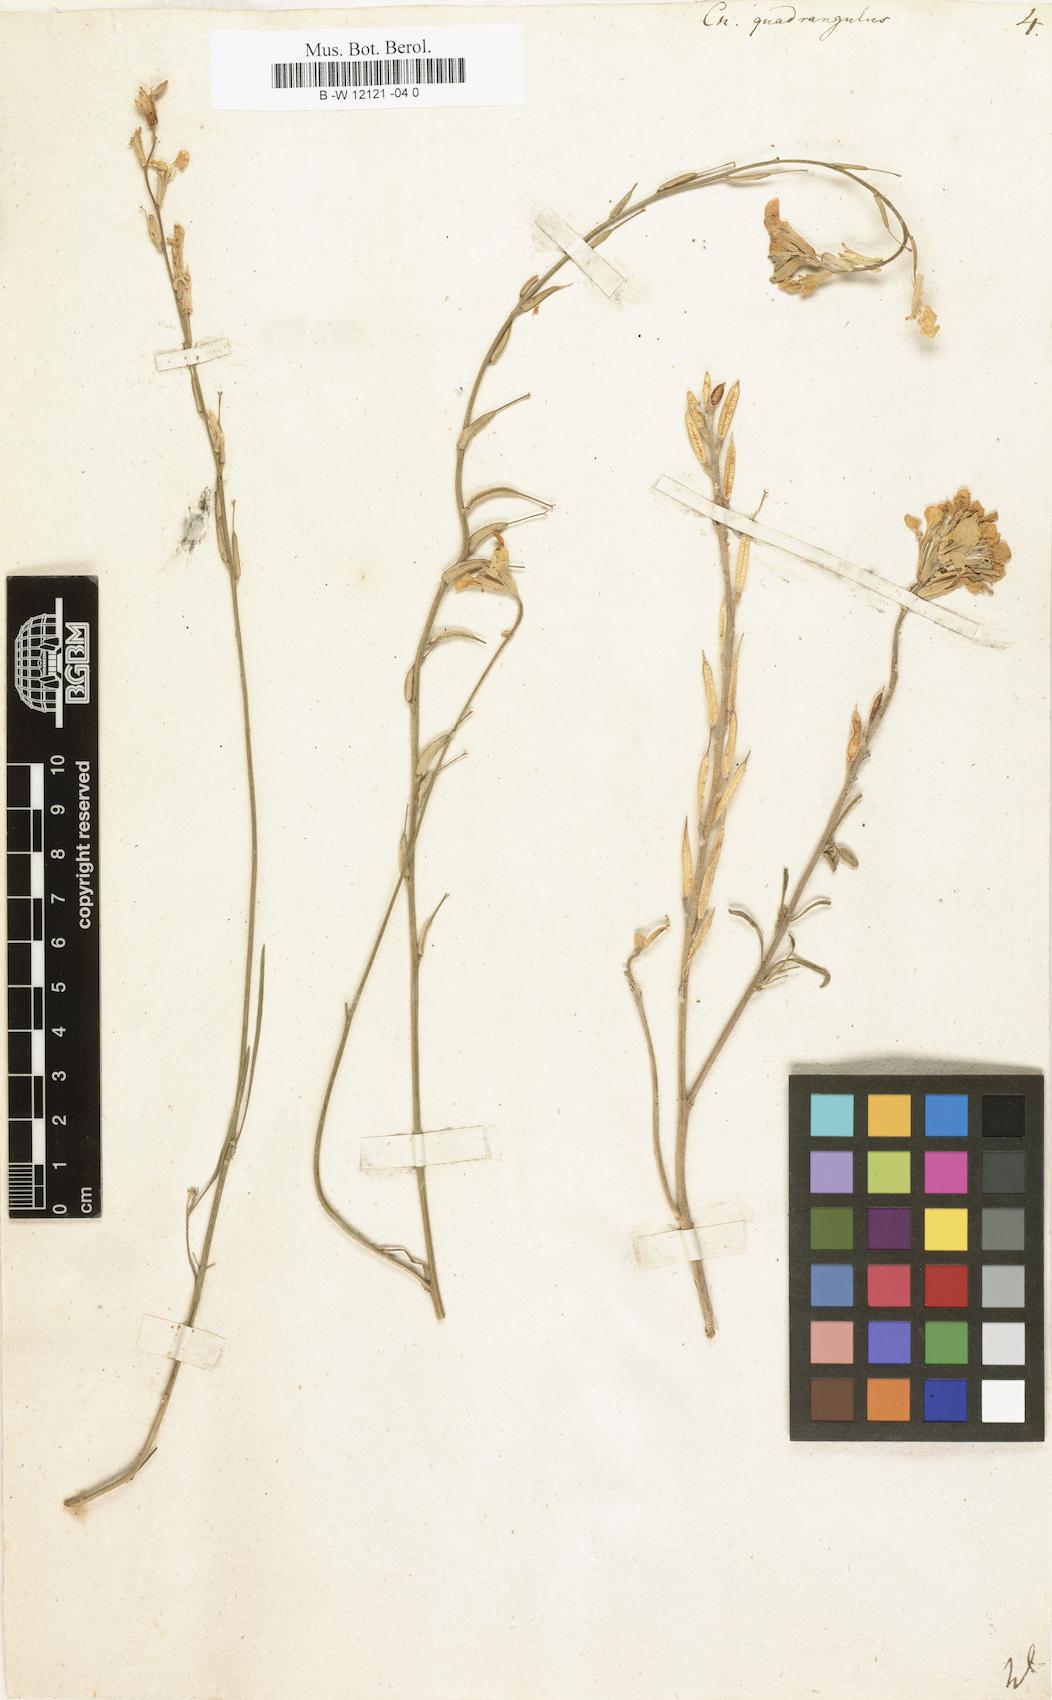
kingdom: Plantae
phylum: Tracheophyta
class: Magnoliopsida
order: Brassicales
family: Brassicaceae
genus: Erysimum
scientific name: Erysimum
